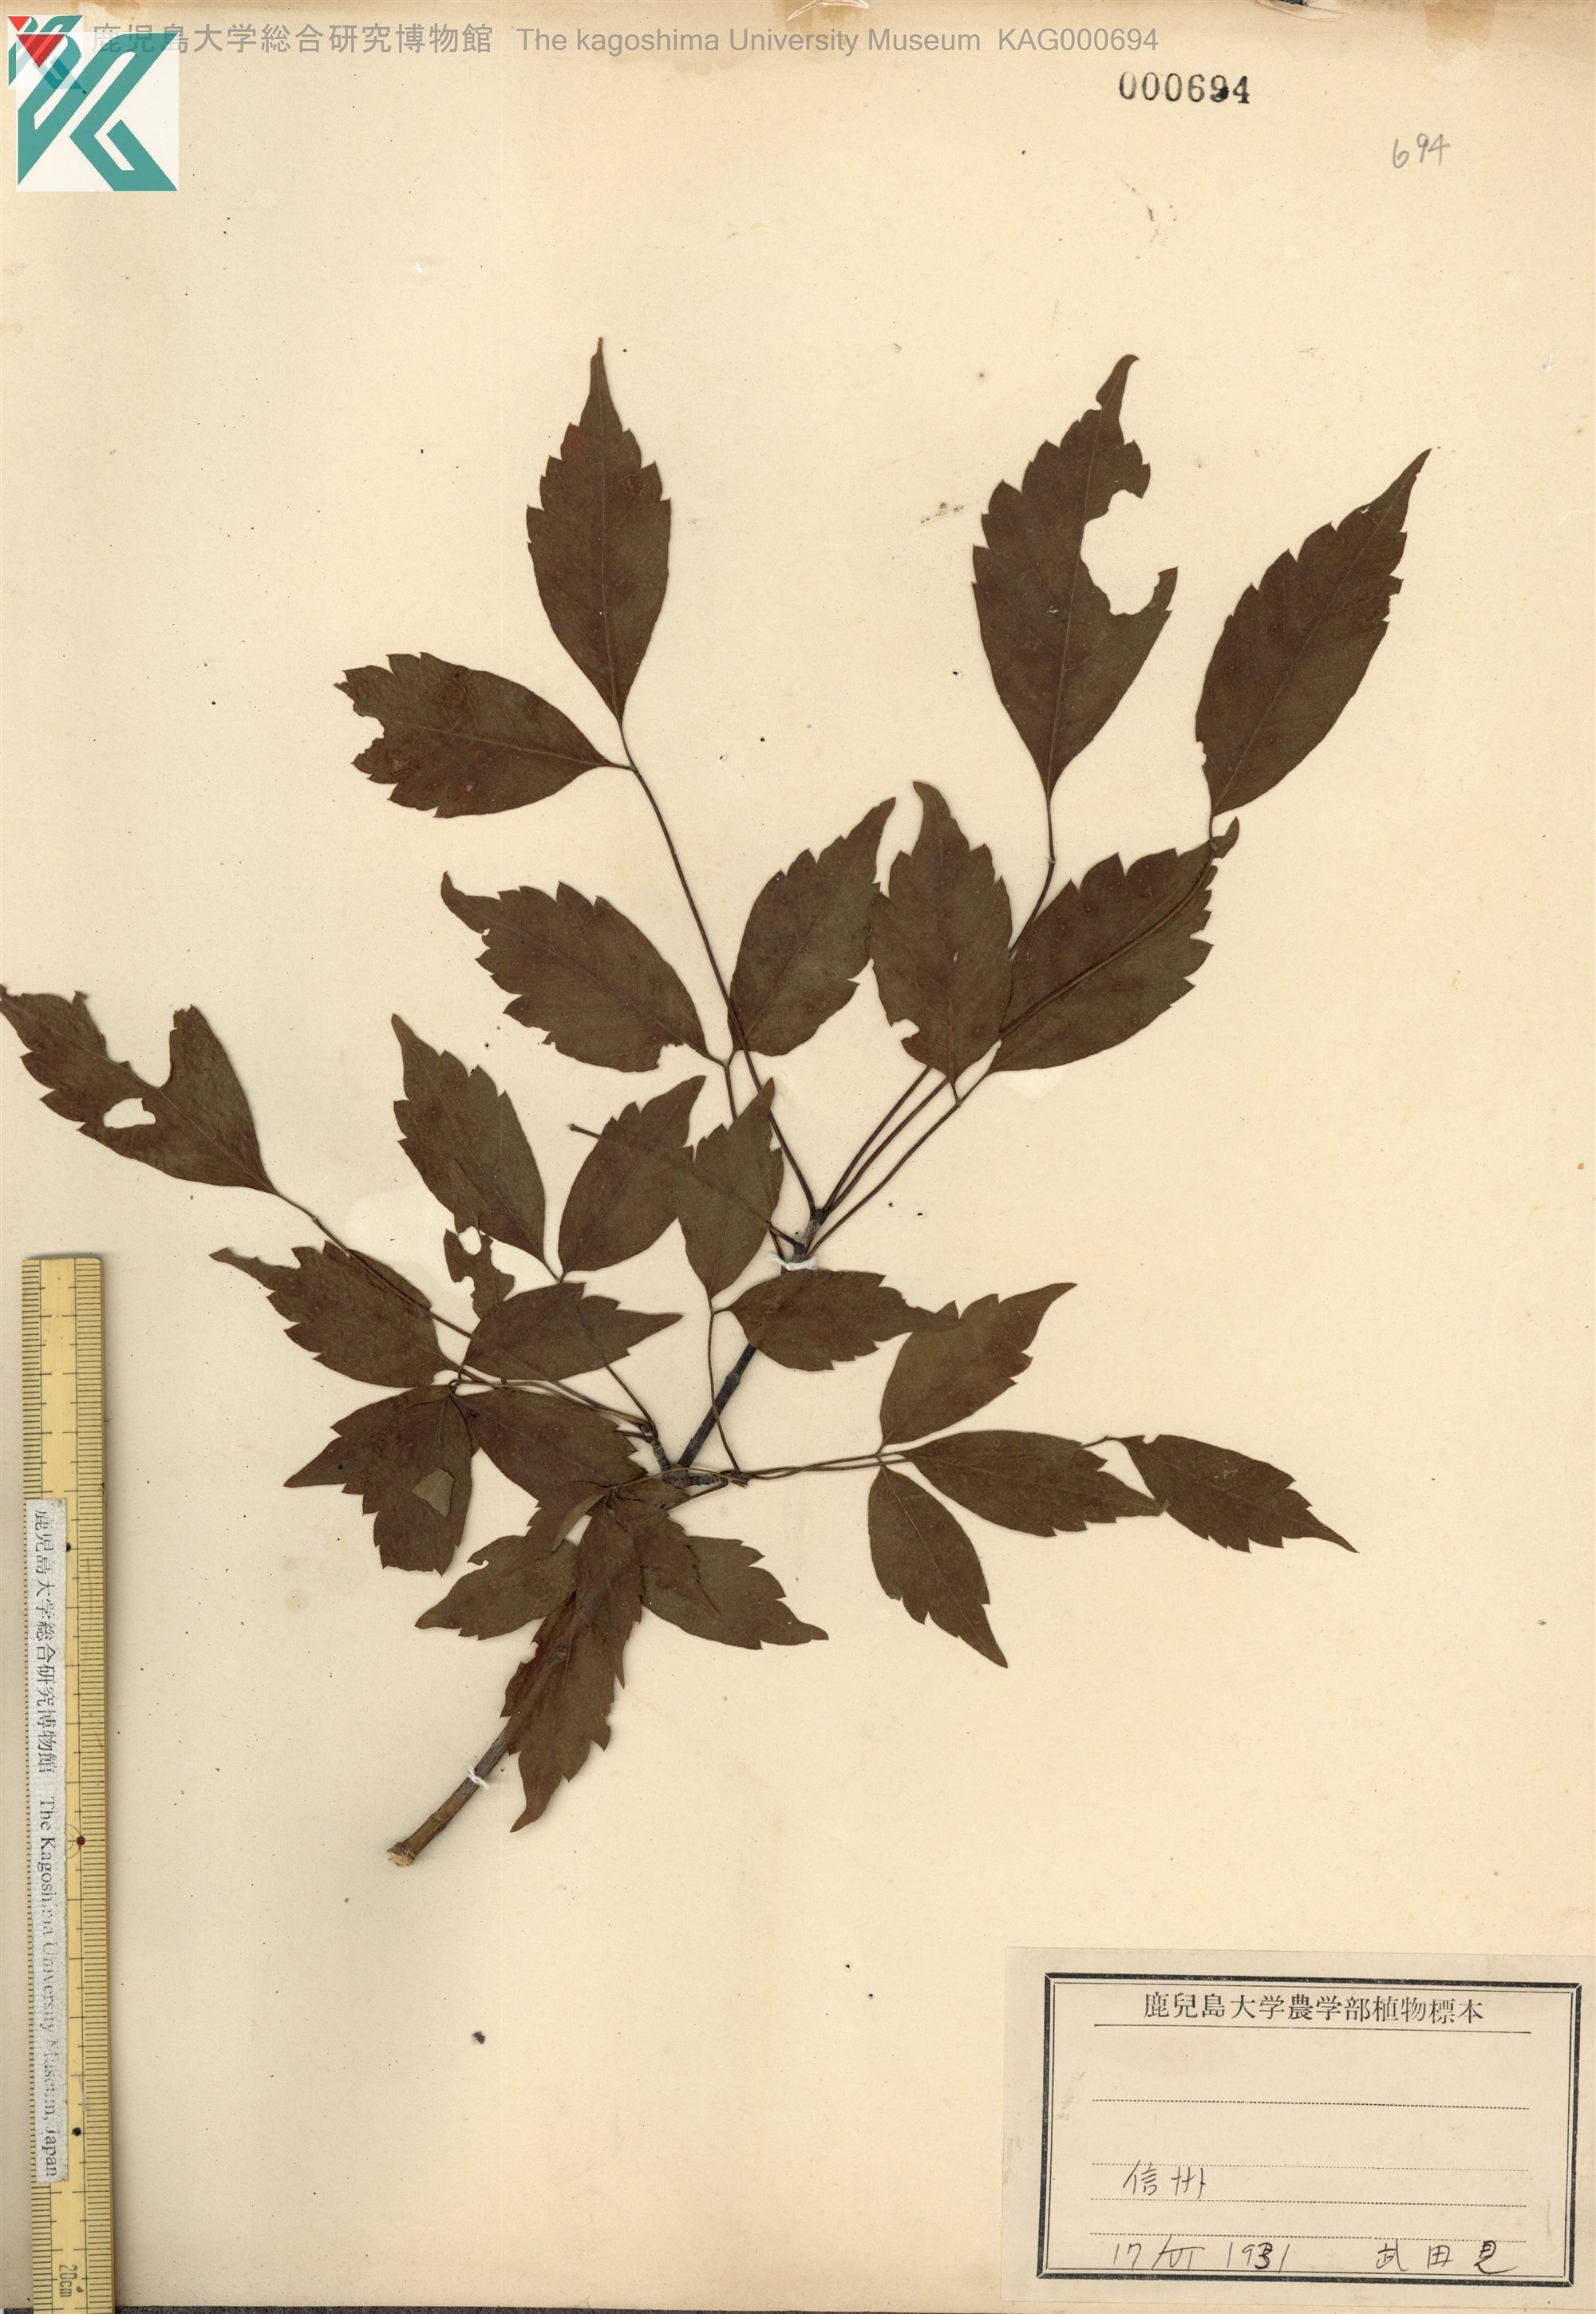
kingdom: Plantae
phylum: Tracheophyta
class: Magnoliopsida
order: Sapindales
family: Sapindaceae
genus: Acer
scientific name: Acer cissifolium
